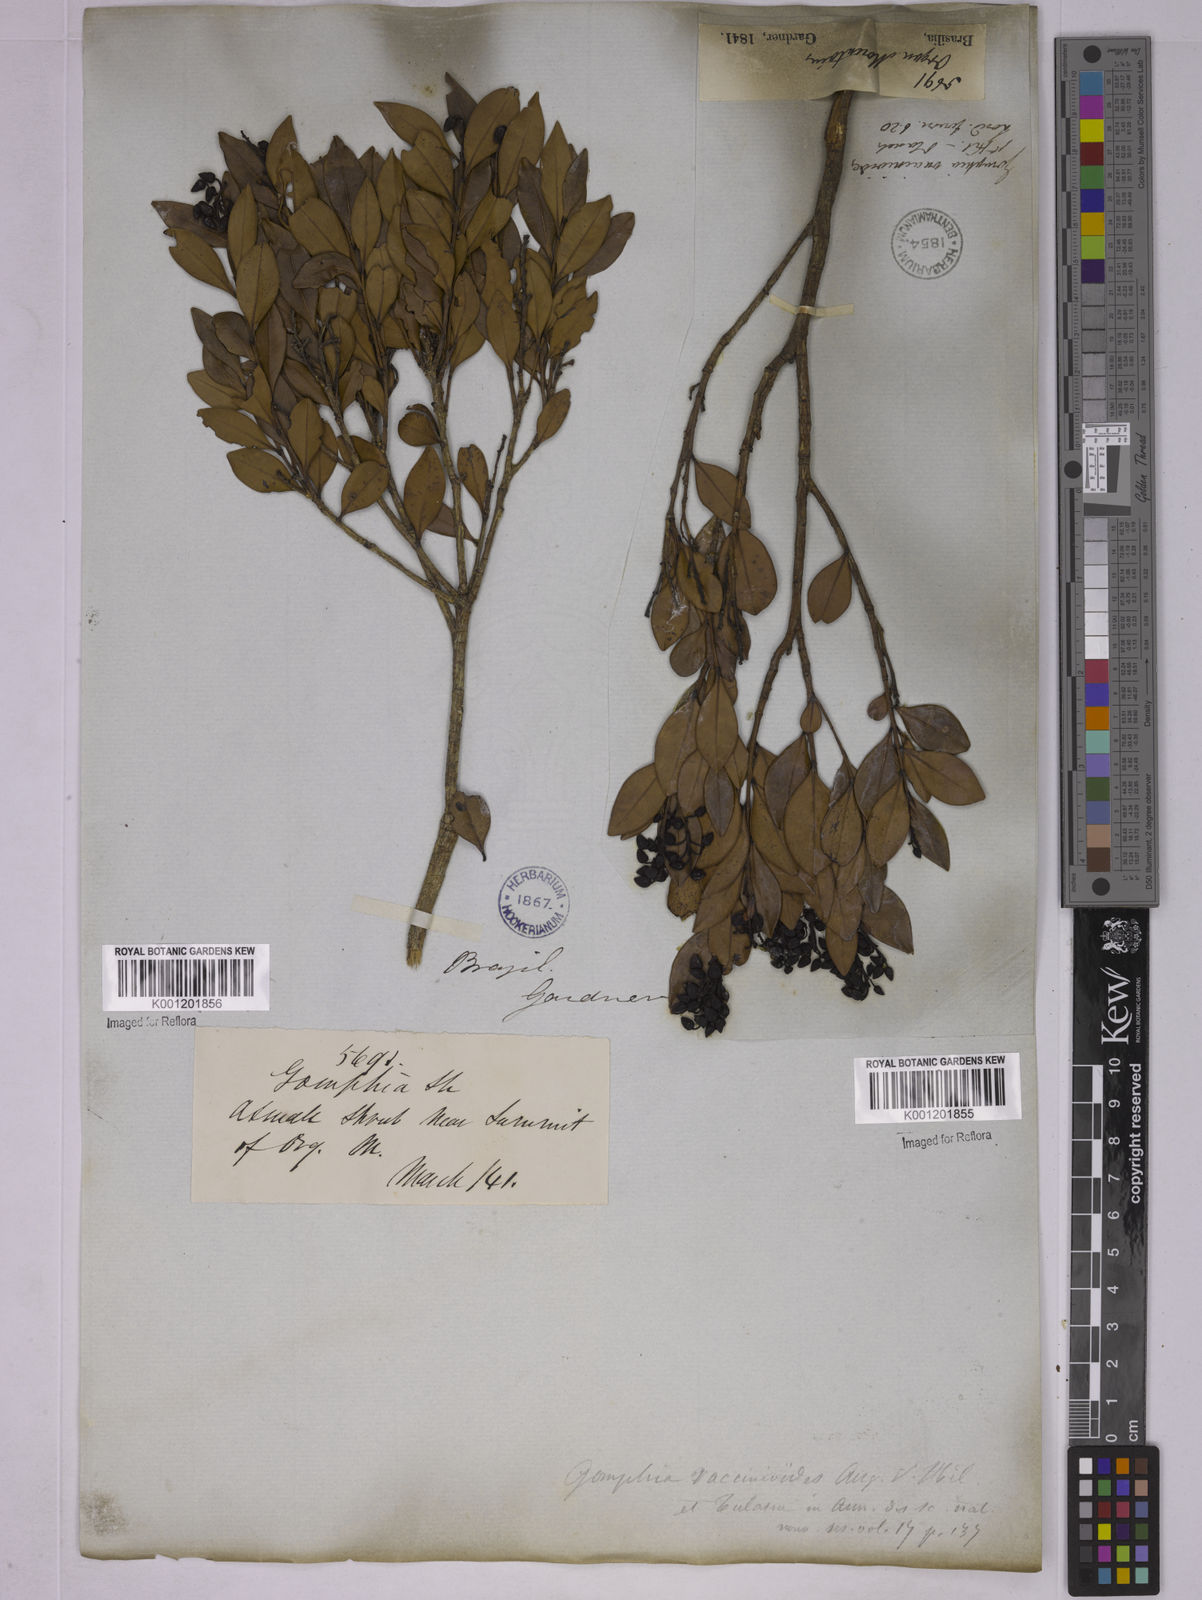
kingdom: Plantae
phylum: Tracheophyta
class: Magnoliopsida
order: Malpighiales
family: Ochnaceae
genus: Ouratea
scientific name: Ouratea vaccinioides
